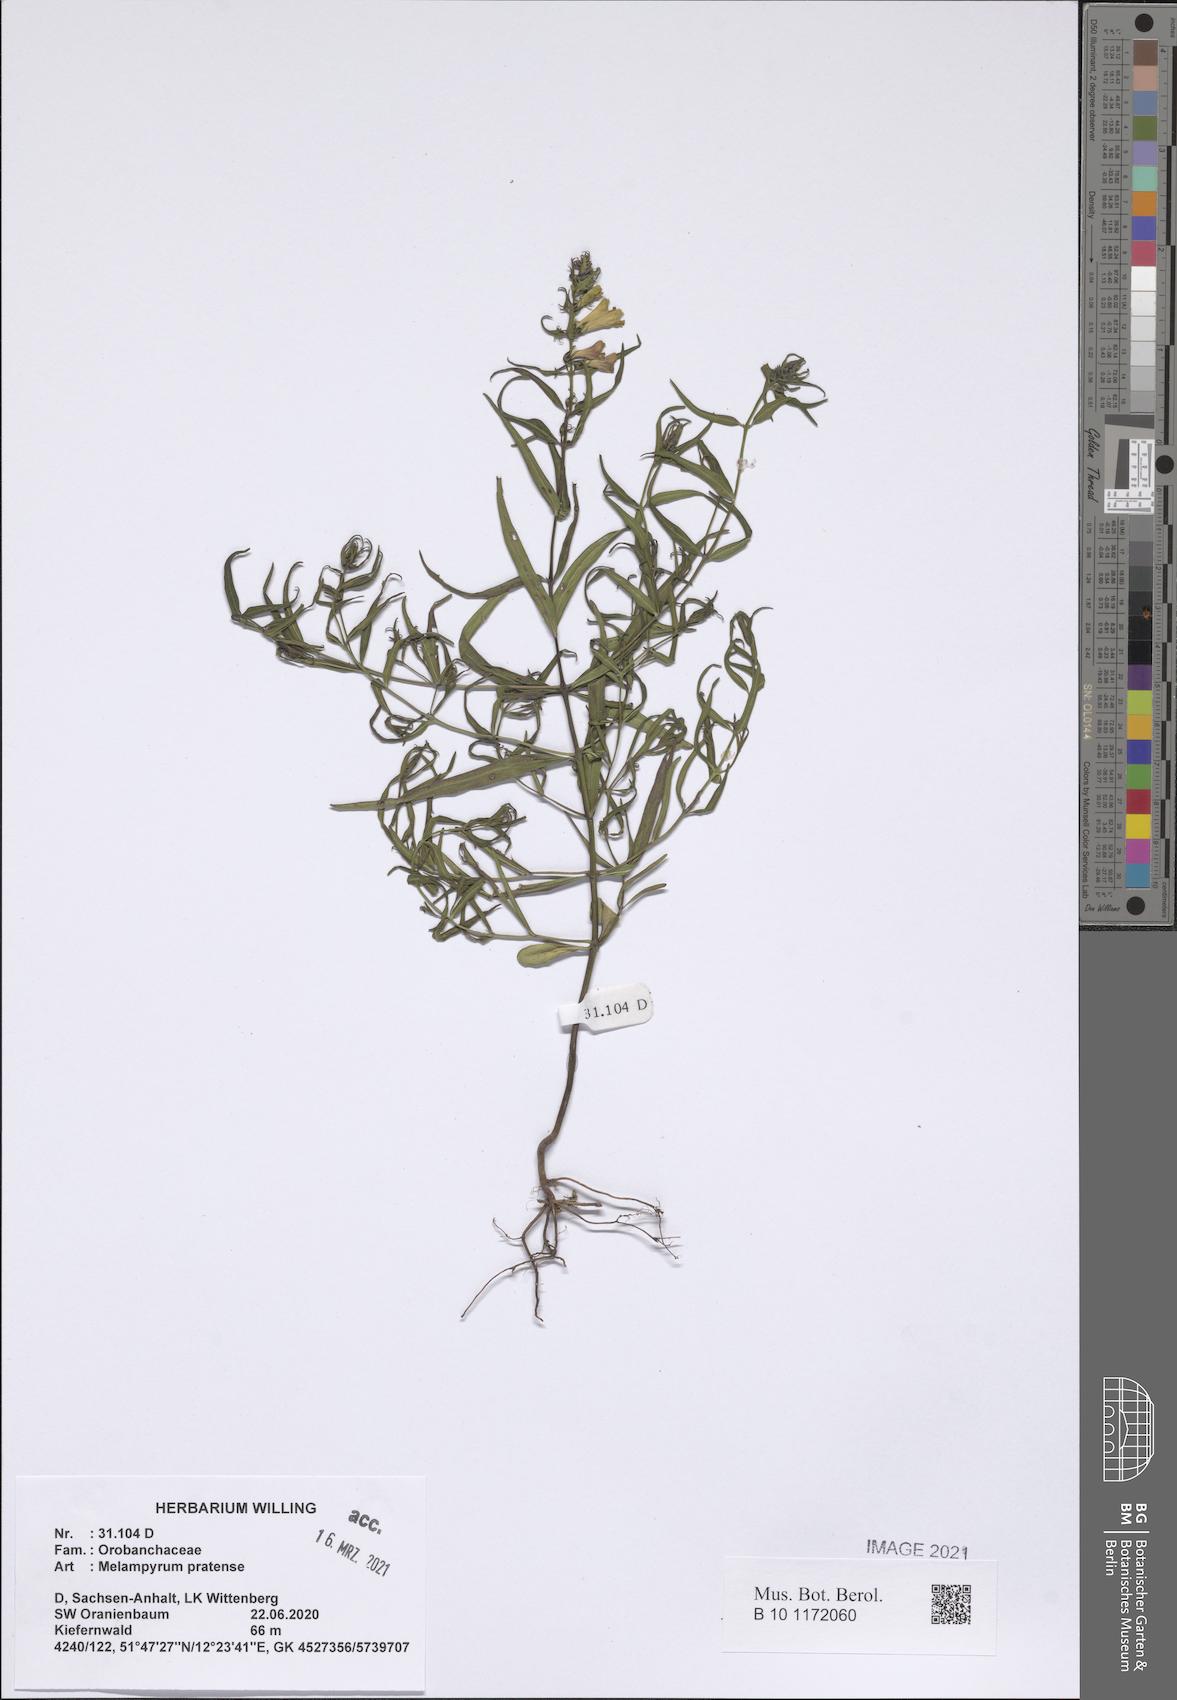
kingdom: Plantae
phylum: Tracheophyta
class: Magnoliopsida
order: Lamiales
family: Orobanchaceae
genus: Melampyrum
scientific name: Melampyrum pratense
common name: Common cow-wheat
